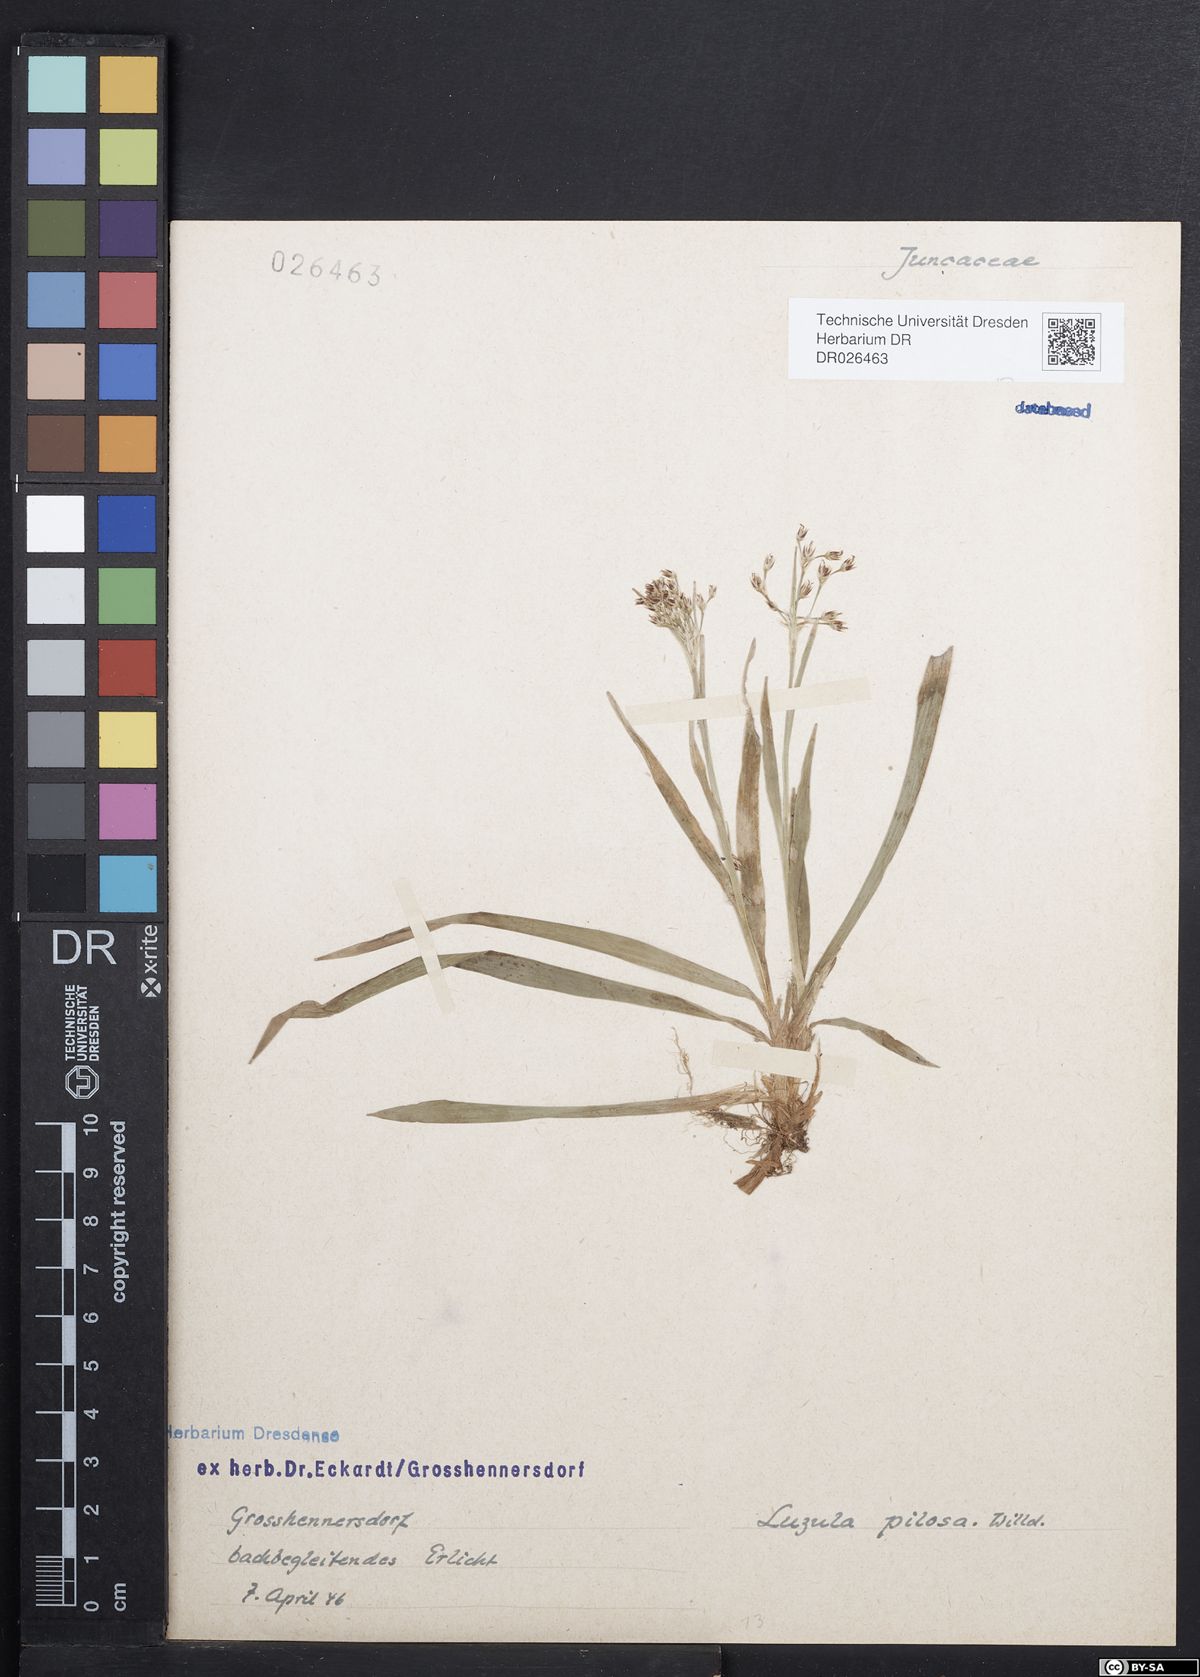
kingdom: Plantae
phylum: Tracheophyta
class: Liliopsida
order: Poales
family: Juncaceae
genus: Luzula
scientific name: Luzula pilosa
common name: Hairy wood-rush
